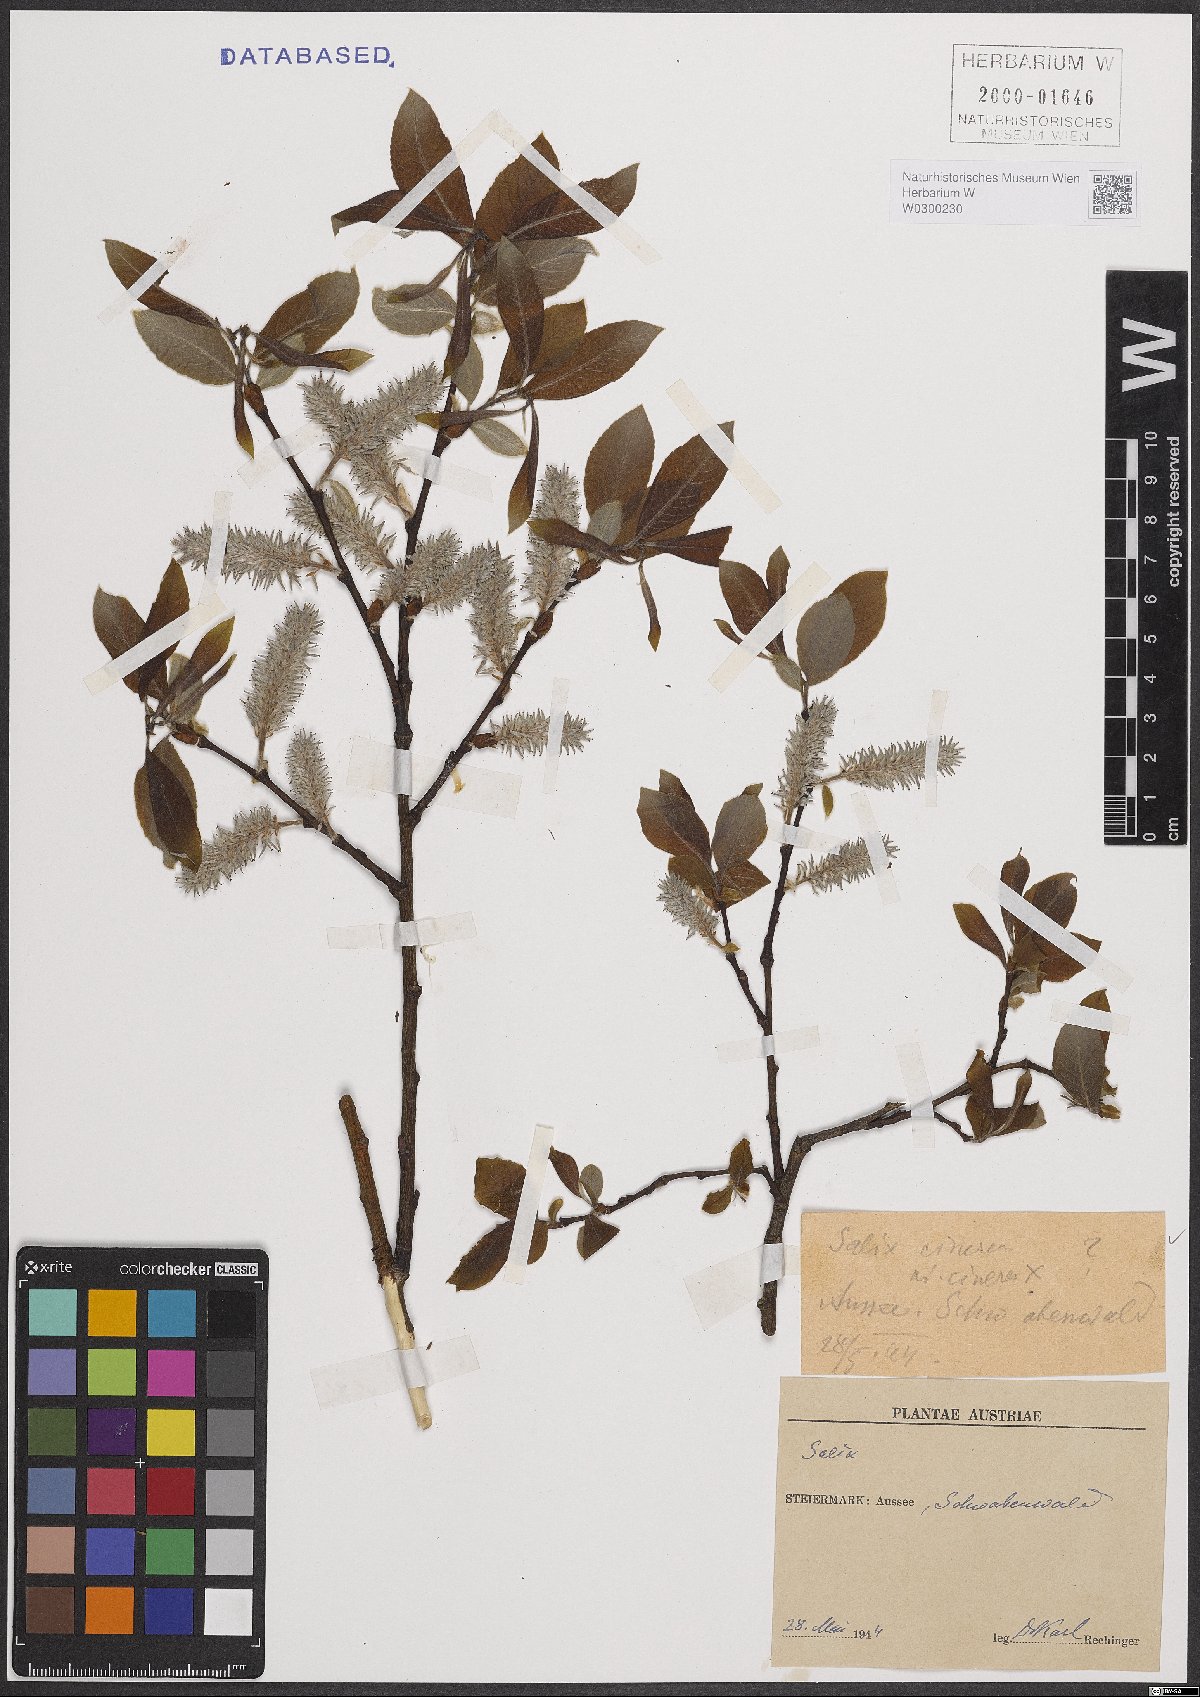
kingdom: Plantae
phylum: Tracheophyta
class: Magnoliopsida
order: Malpighiales
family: Salicaceae
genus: Salix
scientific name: Salix cinerea
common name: Common sallow
